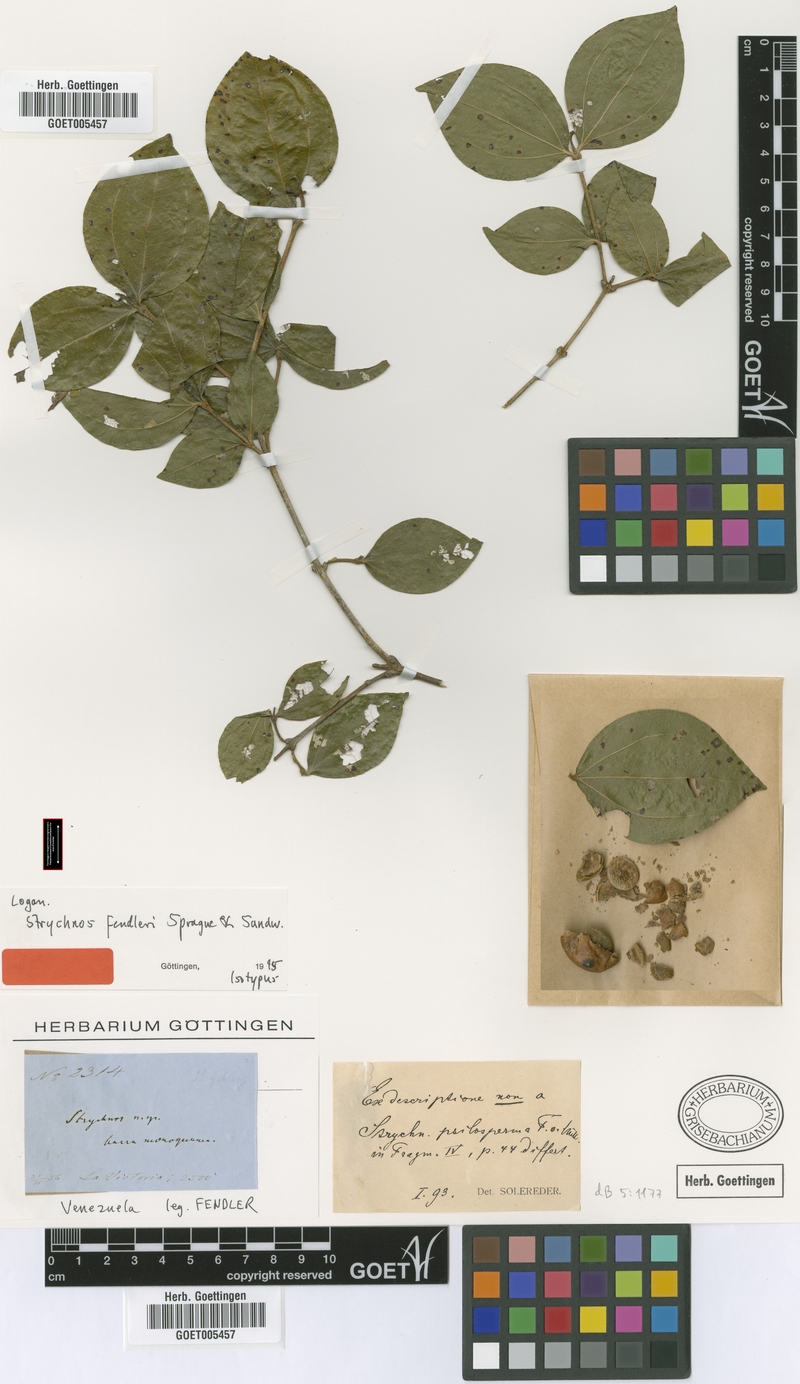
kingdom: Plantae
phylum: Tracheophyta
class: Magnoliopsida
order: Gentianales
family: Loganiaceae
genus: Strychnos
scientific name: Strychnos fendleri
